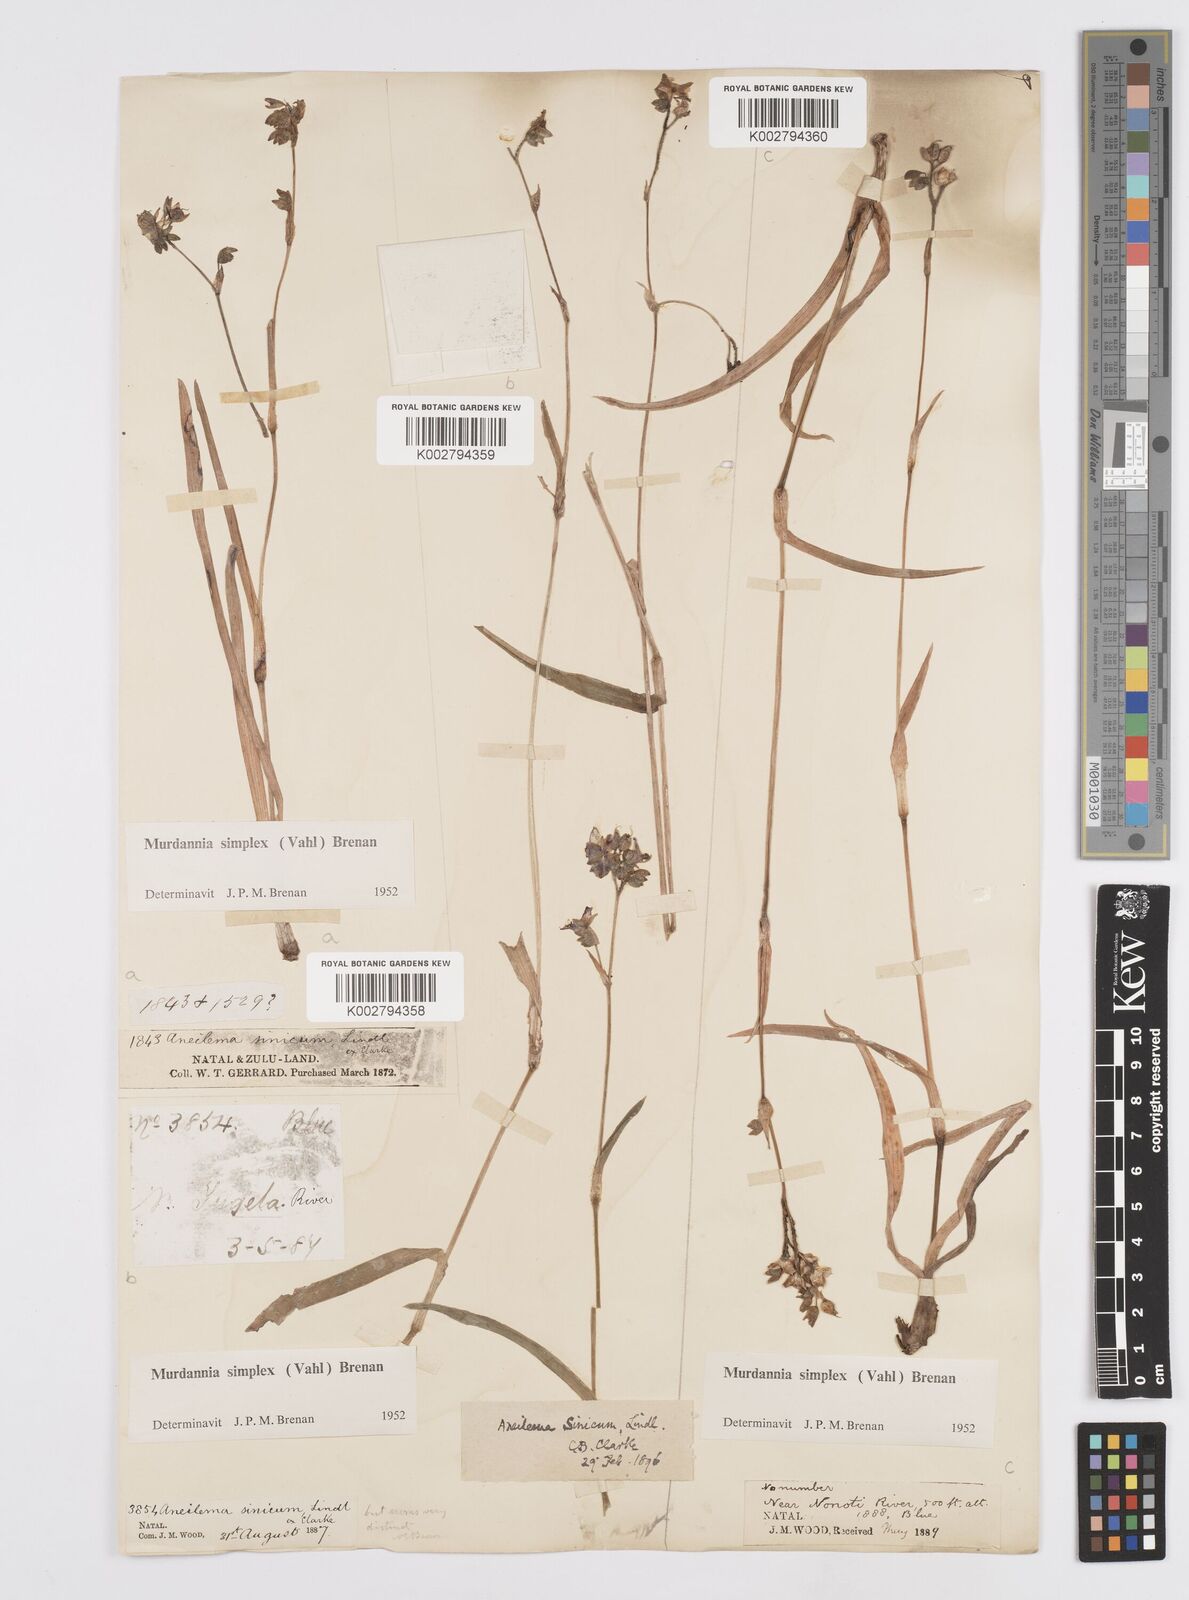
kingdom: Plantae
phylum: Tracheophyta
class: Liliopsida
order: Commelinales
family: Commelinaceae
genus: Murdannia
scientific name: Murdannia simplex
